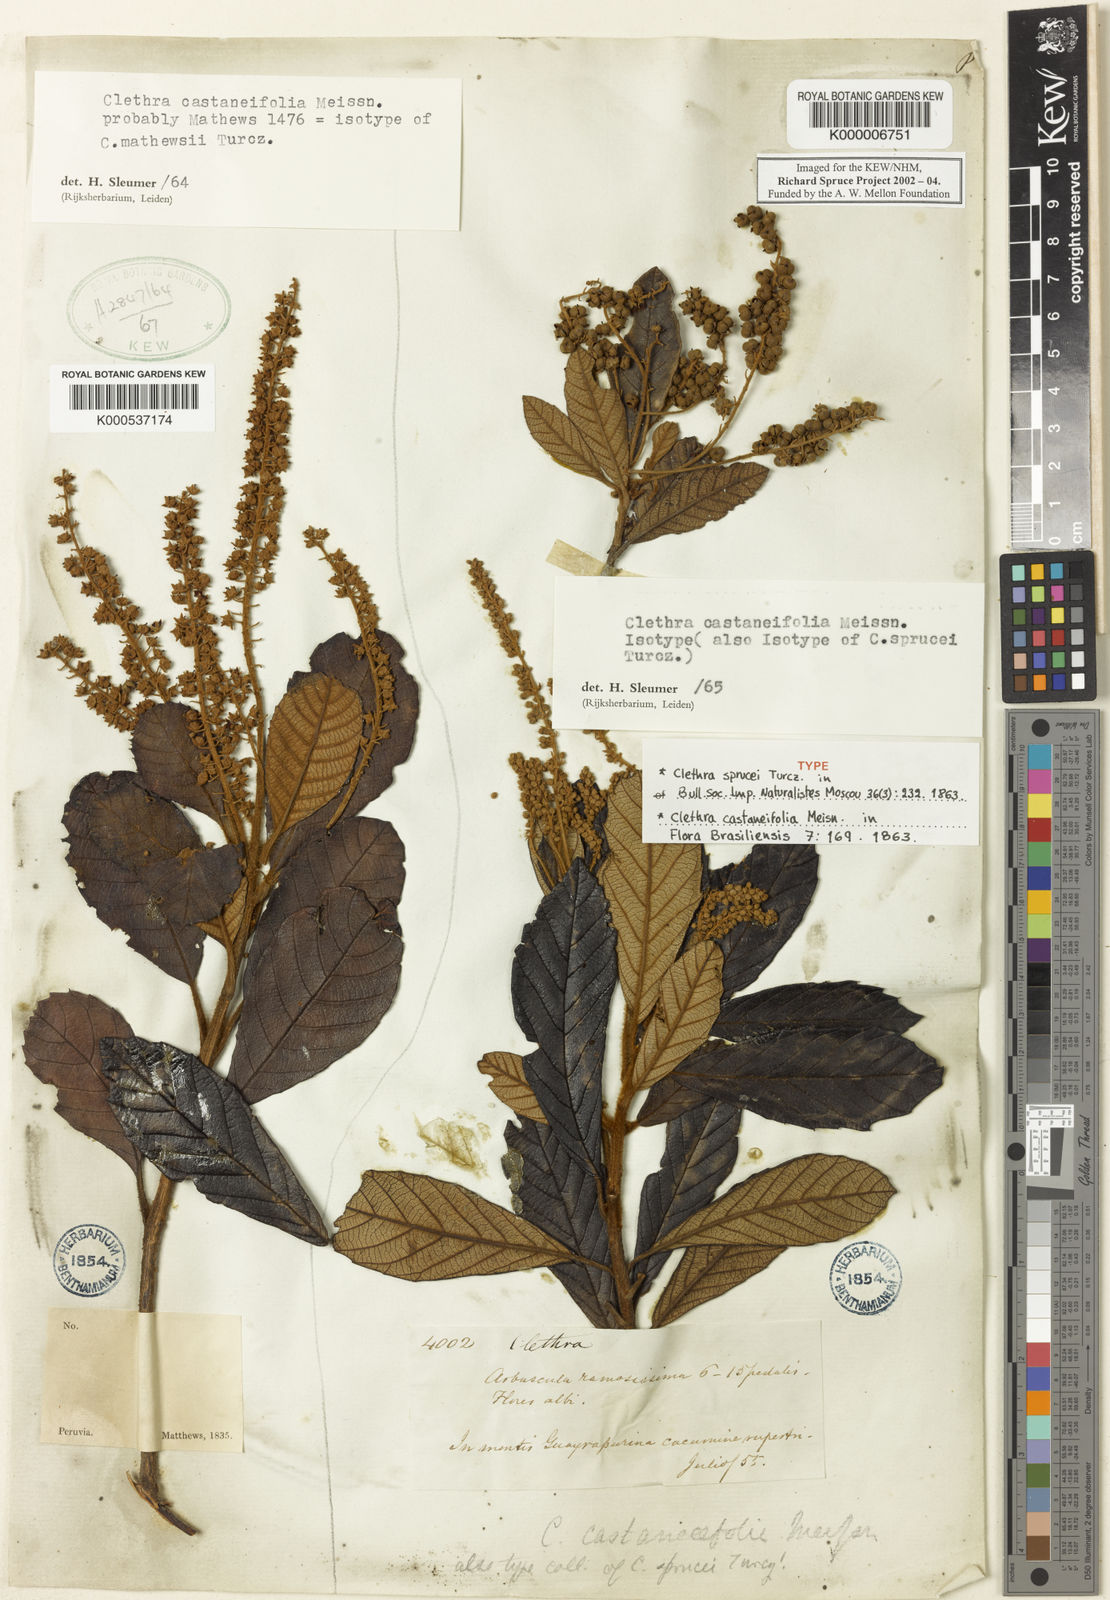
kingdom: Plantae
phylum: Tracheophyta
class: Magnoliopsida
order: Ericales
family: Clethraceae
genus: Clethra
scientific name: Clethra castaneifolia
